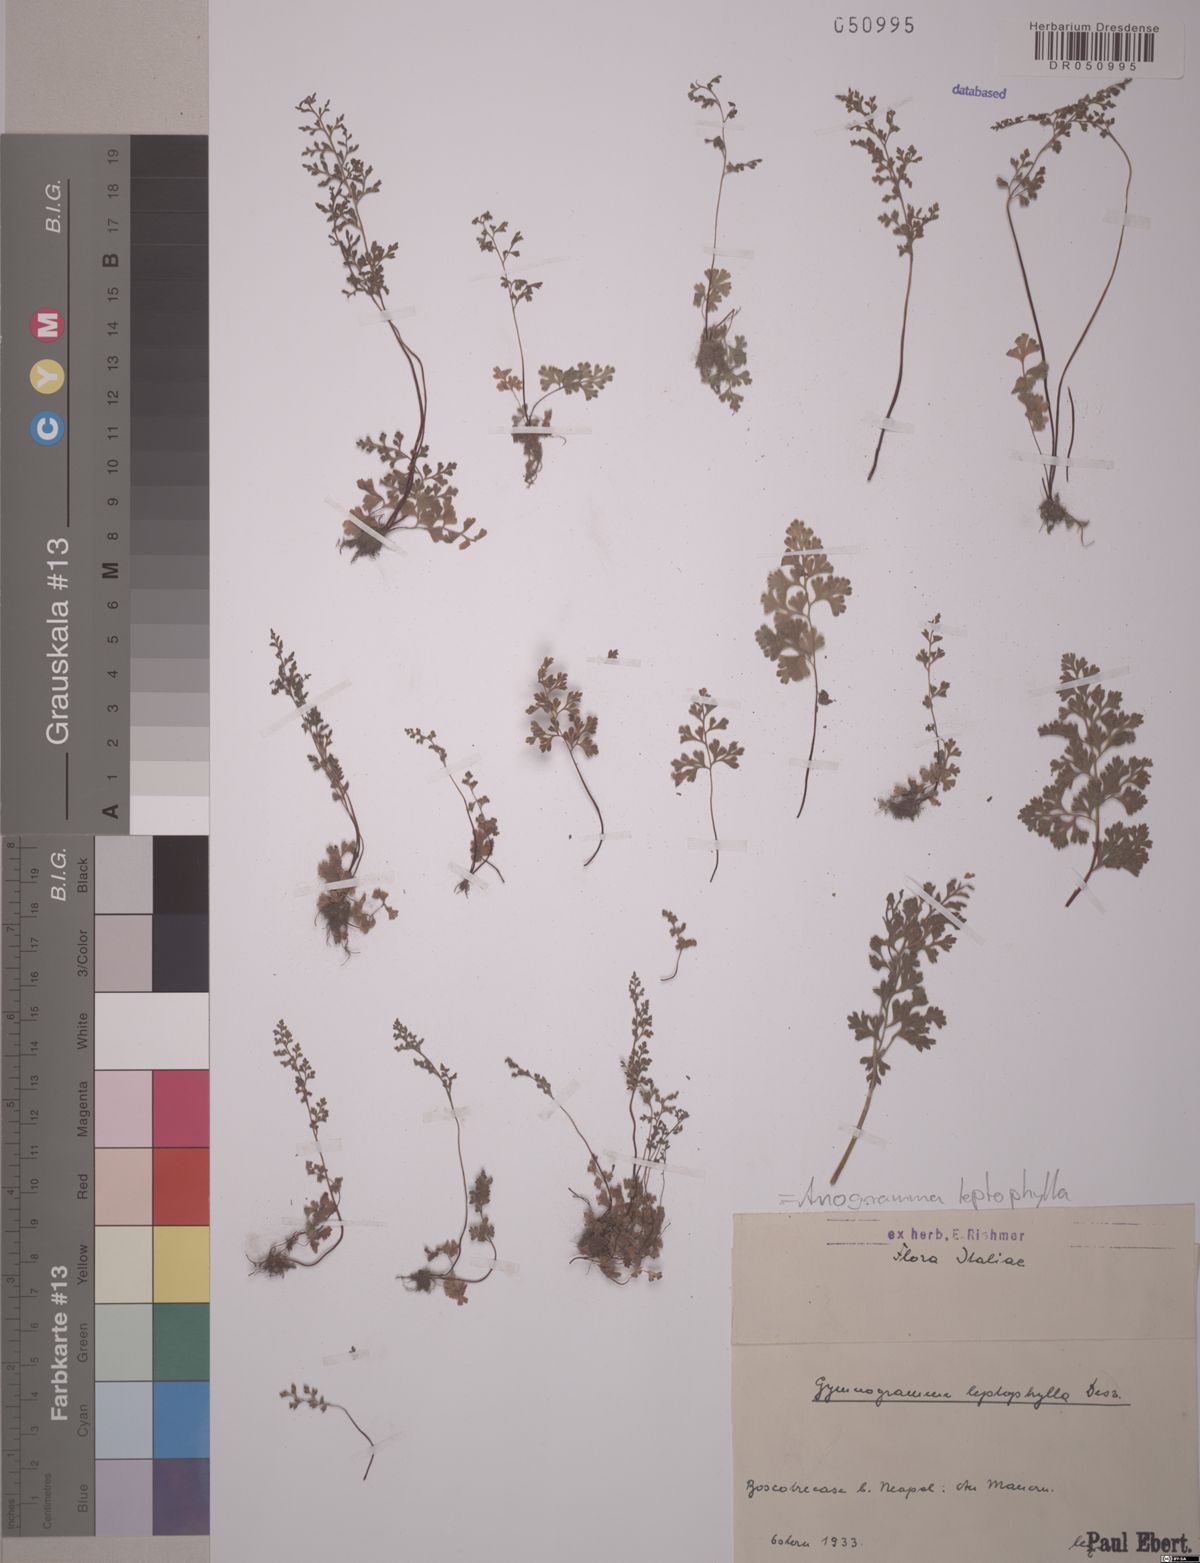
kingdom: Plantae
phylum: Tracheophyta
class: Polypodiopsida
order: Polypodiales
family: Pteridaceae
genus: Anogramma
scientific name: Anogramma leptophylla
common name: Jersey fern
